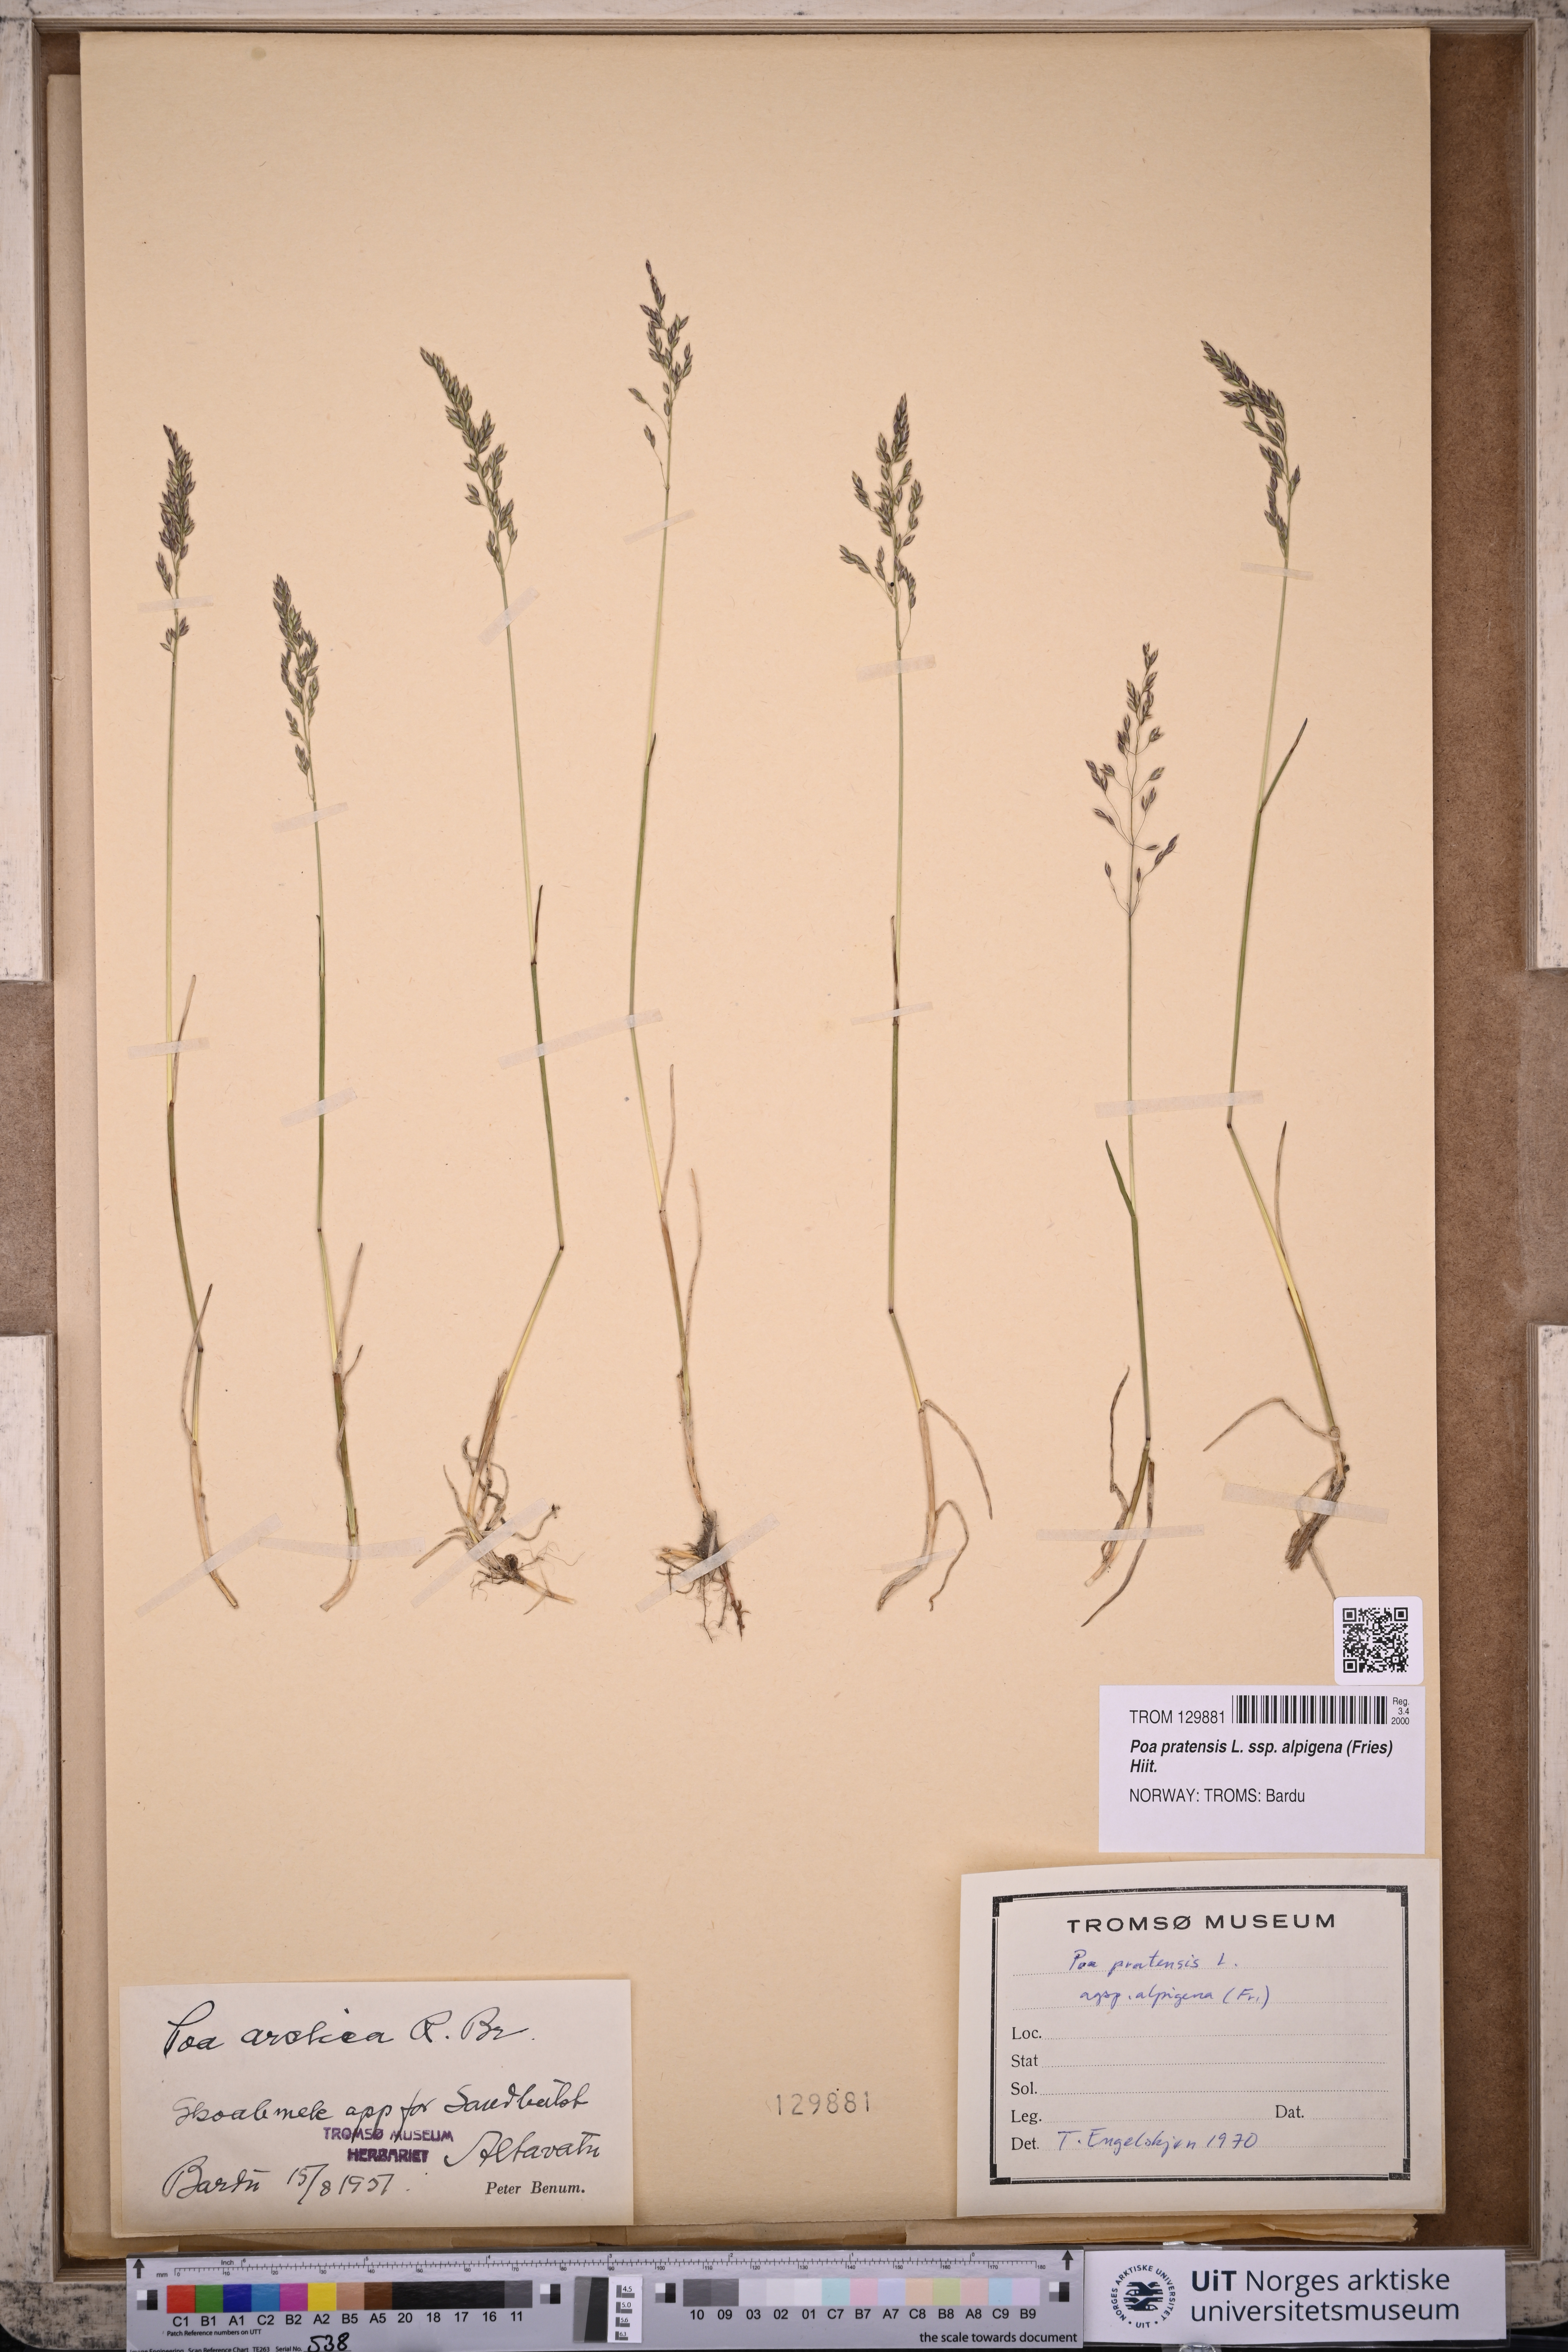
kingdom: Plantae
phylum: Tracheophyta
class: Liliopsida
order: Poales
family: Poaceae
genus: Poa
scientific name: Poa alpigena
